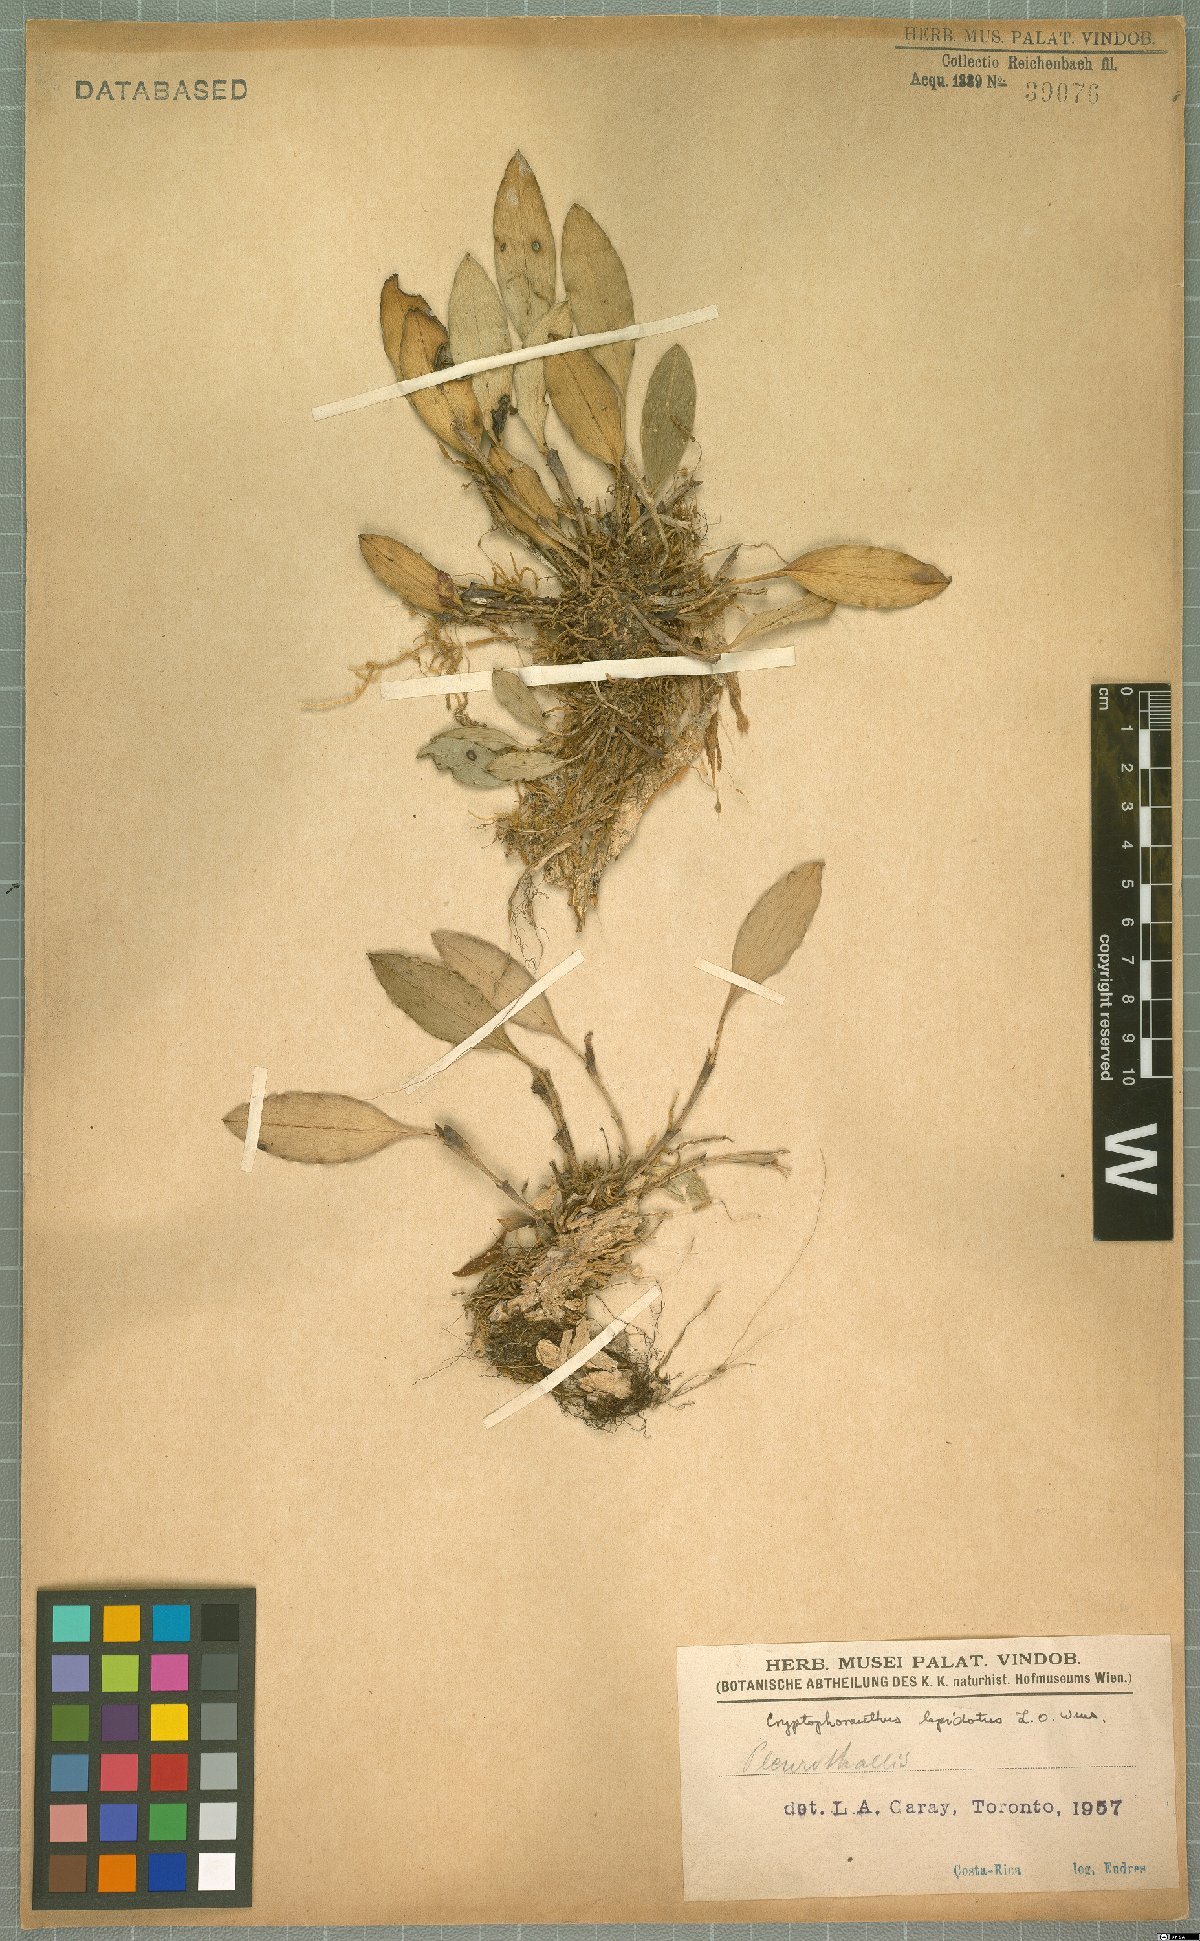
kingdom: Plantae
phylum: Tracheophyta
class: Liliopsida
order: Asparagales
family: Orchidaceae
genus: Zootrophion
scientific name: Zootrophion gracilentum
